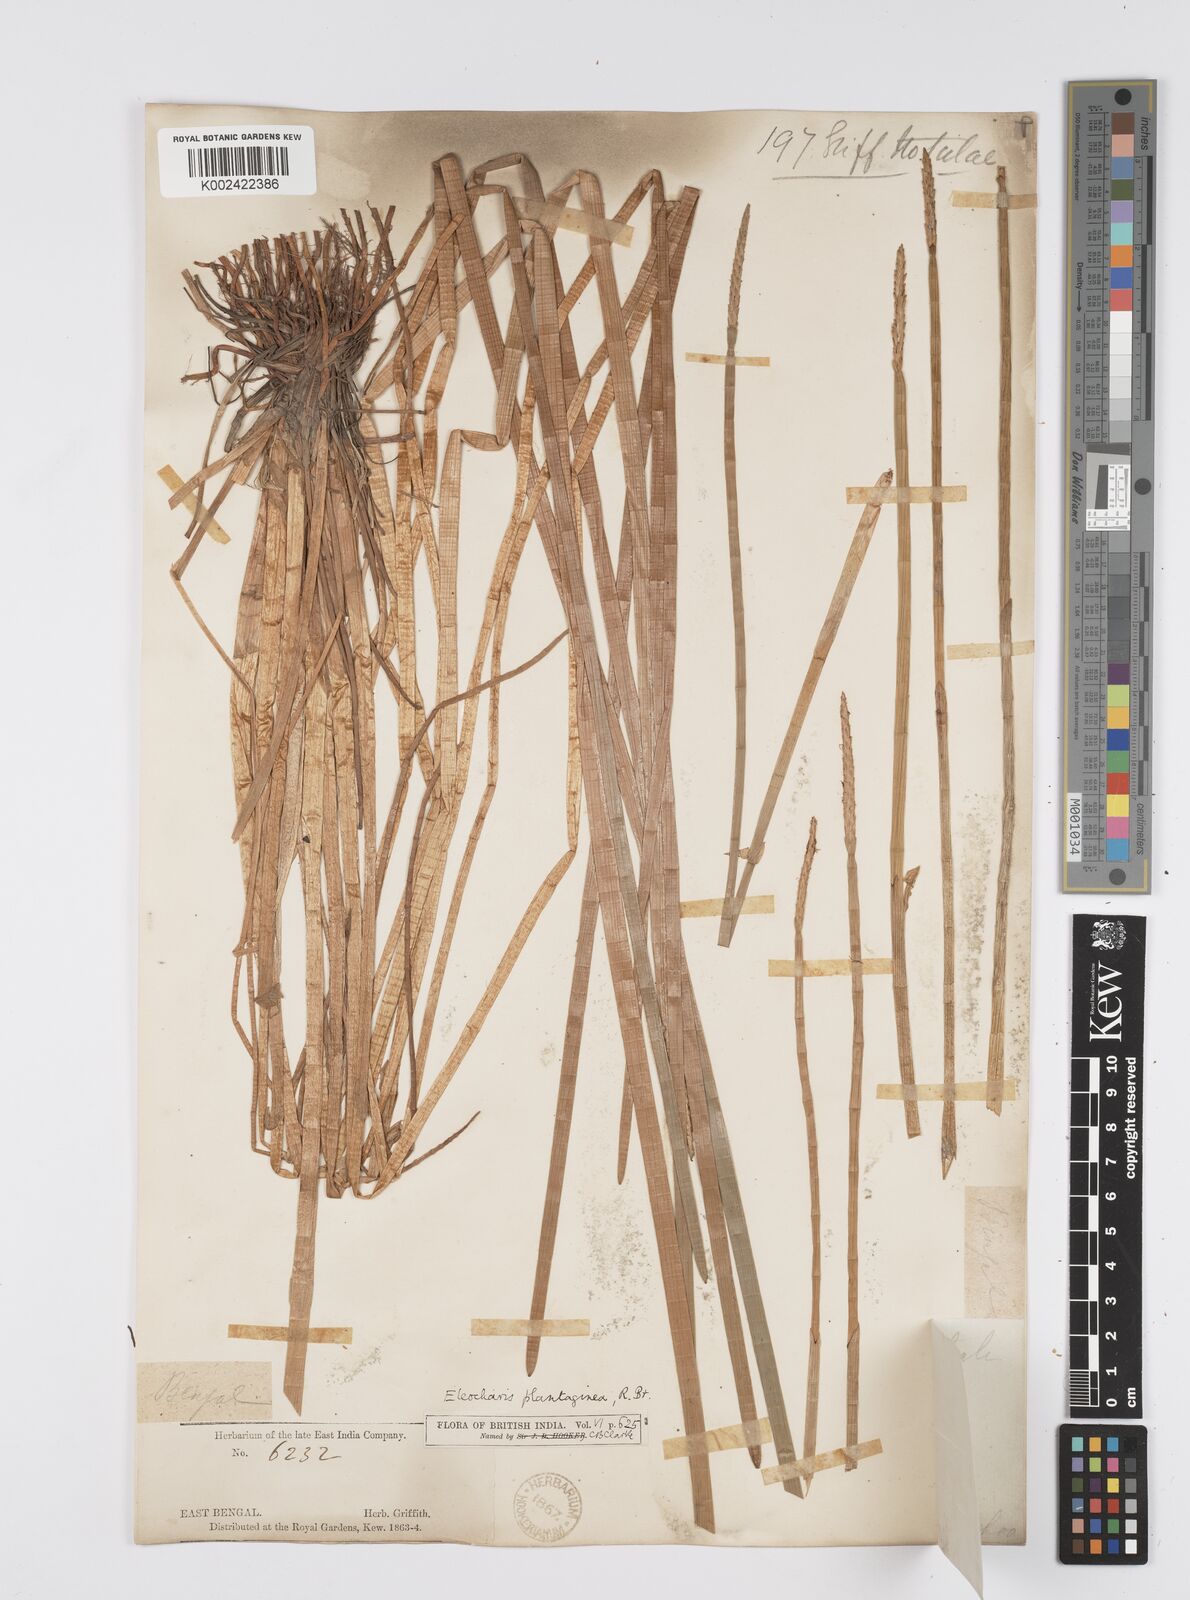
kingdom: Plantae
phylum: Tracheophyta
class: Liliopsida
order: Poales
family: Cyperaceae
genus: Eleocharis
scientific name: Eleocharis dulcis
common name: Chinese water chestnut
